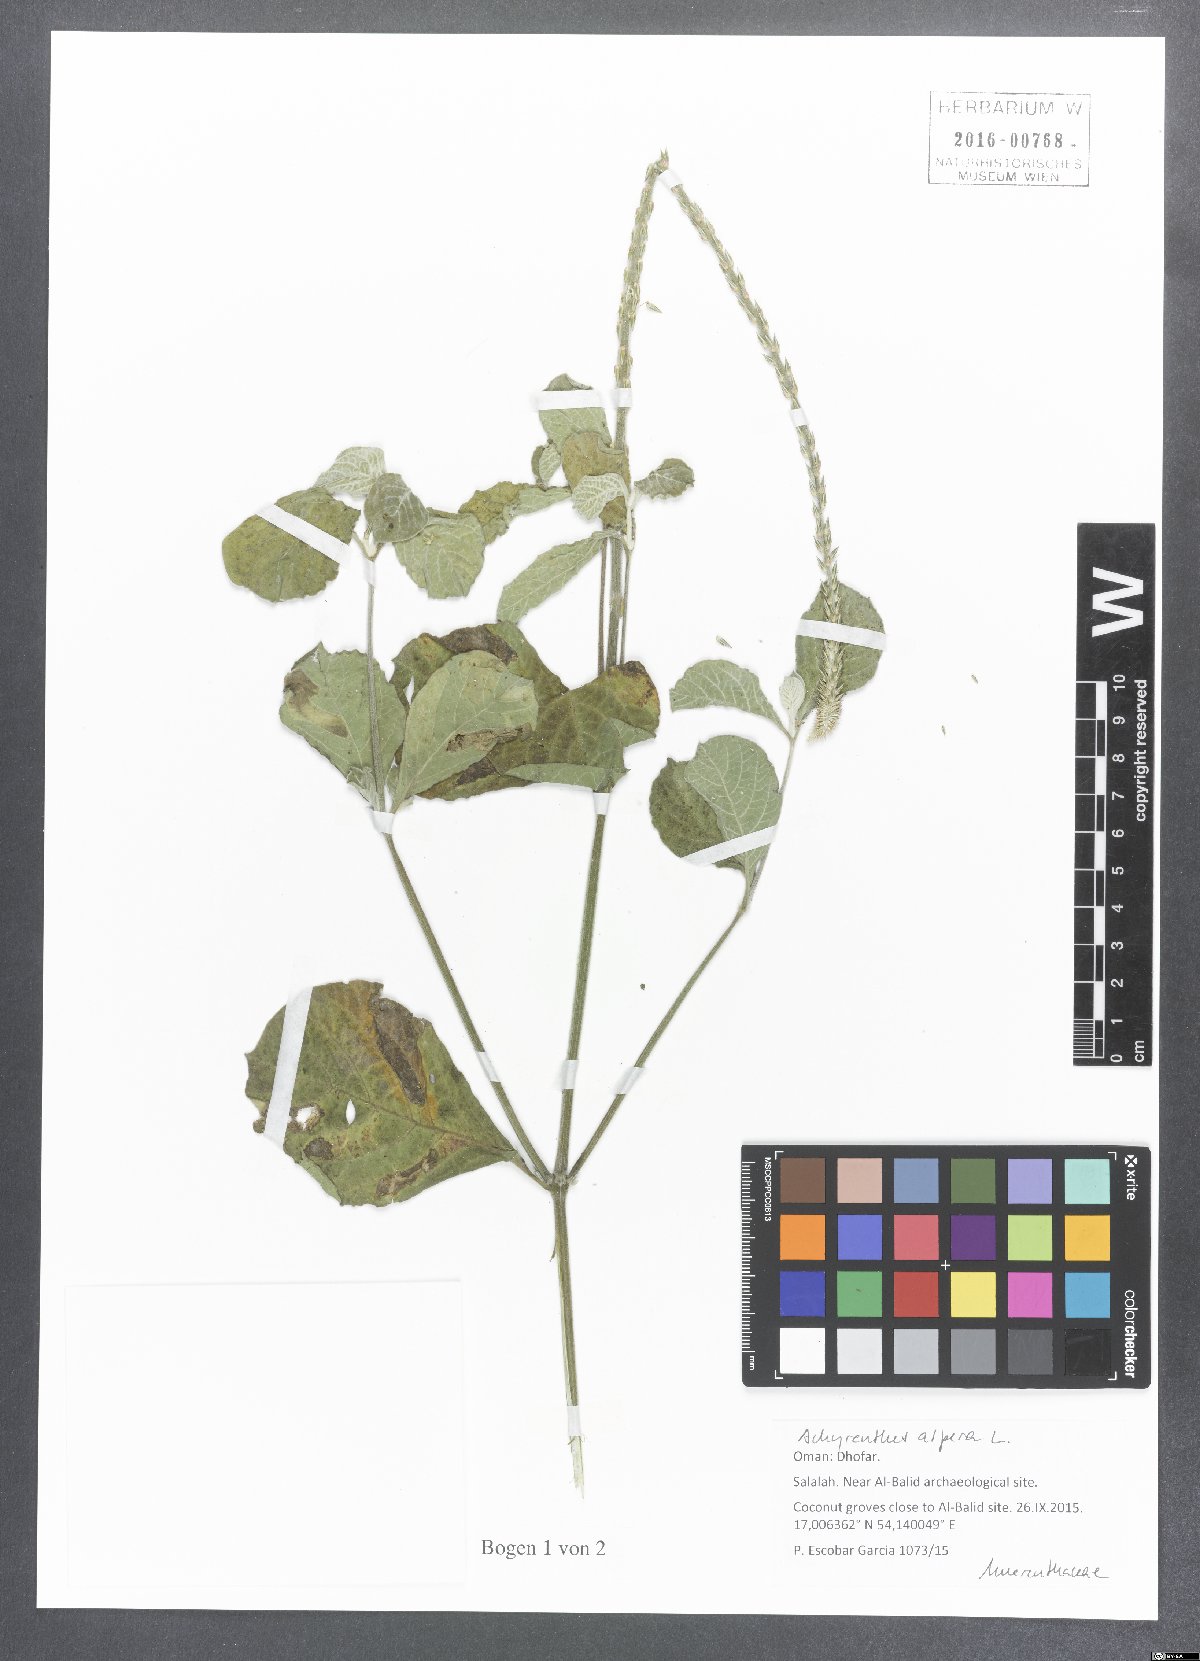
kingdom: Plantae
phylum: Tracheophyta
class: Magnoliopsida
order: Caryophyllales
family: Amaranthaceae
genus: Achyranthes
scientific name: Achyranthes aspera
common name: Devil's horsewhip
